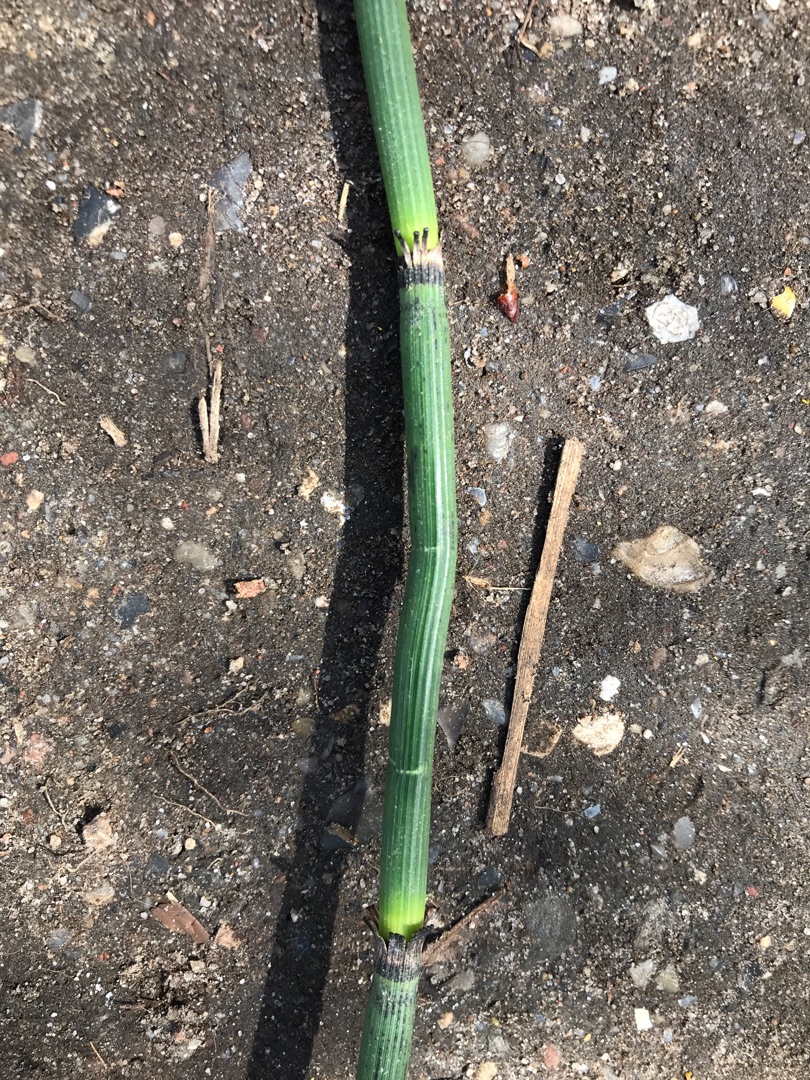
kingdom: Plantae
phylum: Tracheophyta
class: Polypodiopsida
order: Equisetales
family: Equisetaceae
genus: Equisetum
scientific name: Equisetum hyemale
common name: Skavgræs
